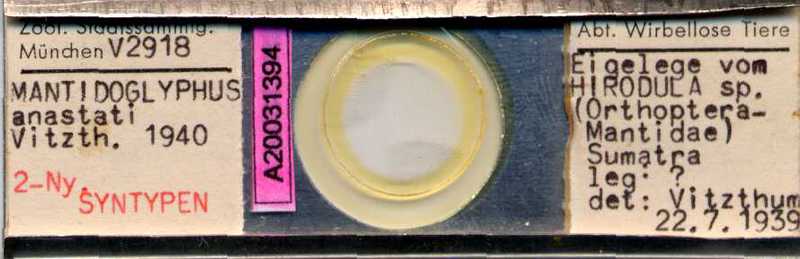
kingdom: Animalia
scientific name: Animalia
